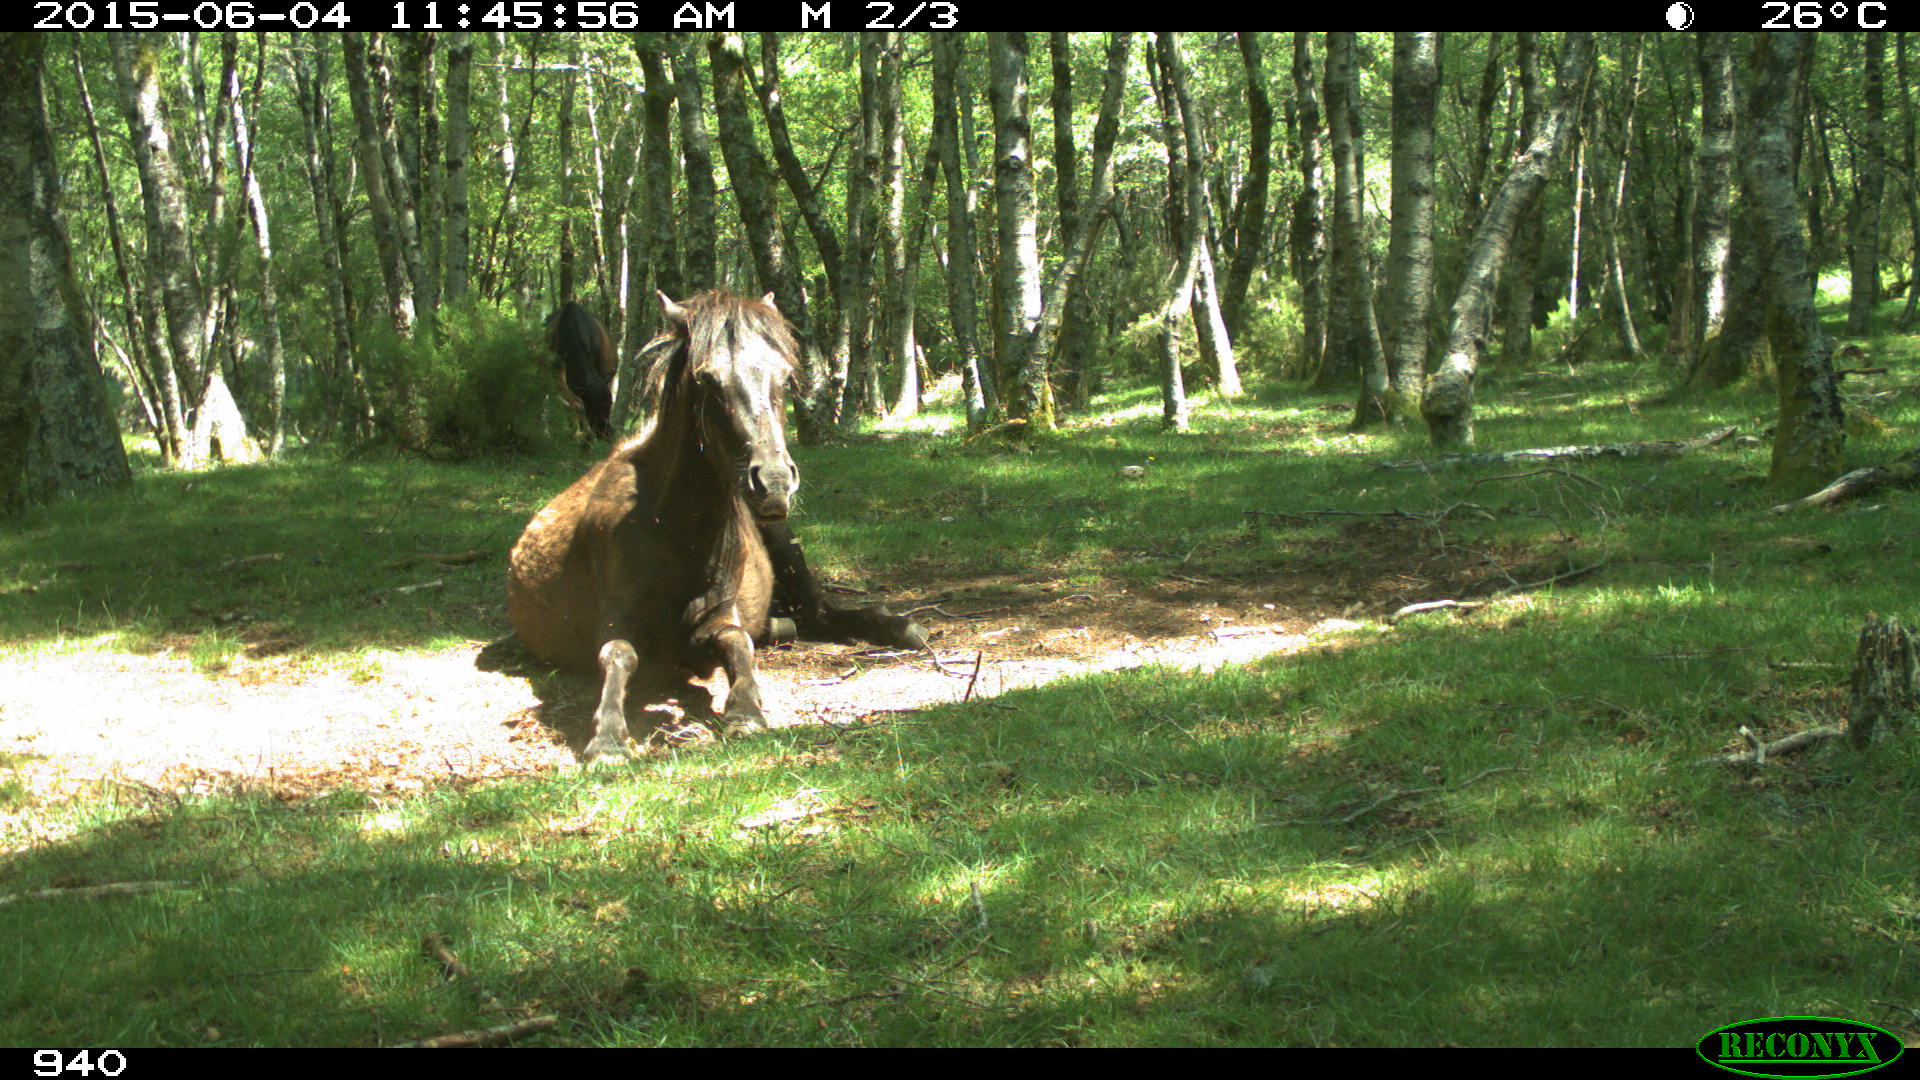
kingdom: Animalia
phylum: Chordata
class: Mammalia
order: Perissodactyla
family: Equidae
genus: Equus
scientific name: Equus caballus
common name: Horse
